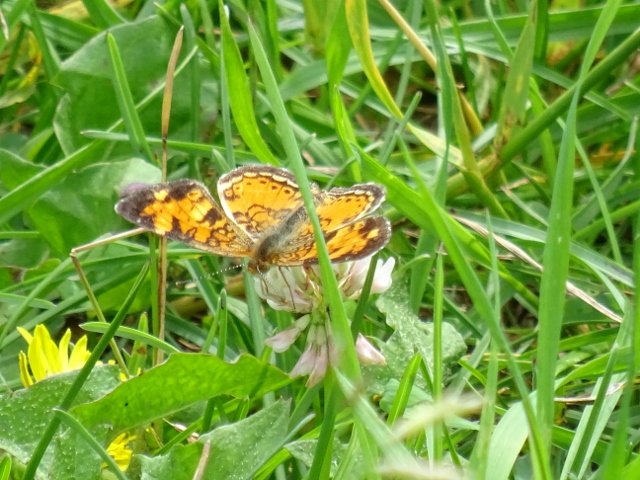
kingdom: Animalia
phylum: Arthropoda
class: Insecta
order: Lepidoptera
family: Nymphalidae
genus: Phyciodes
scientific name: Phyciodes tharos
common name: Northern Crescent
